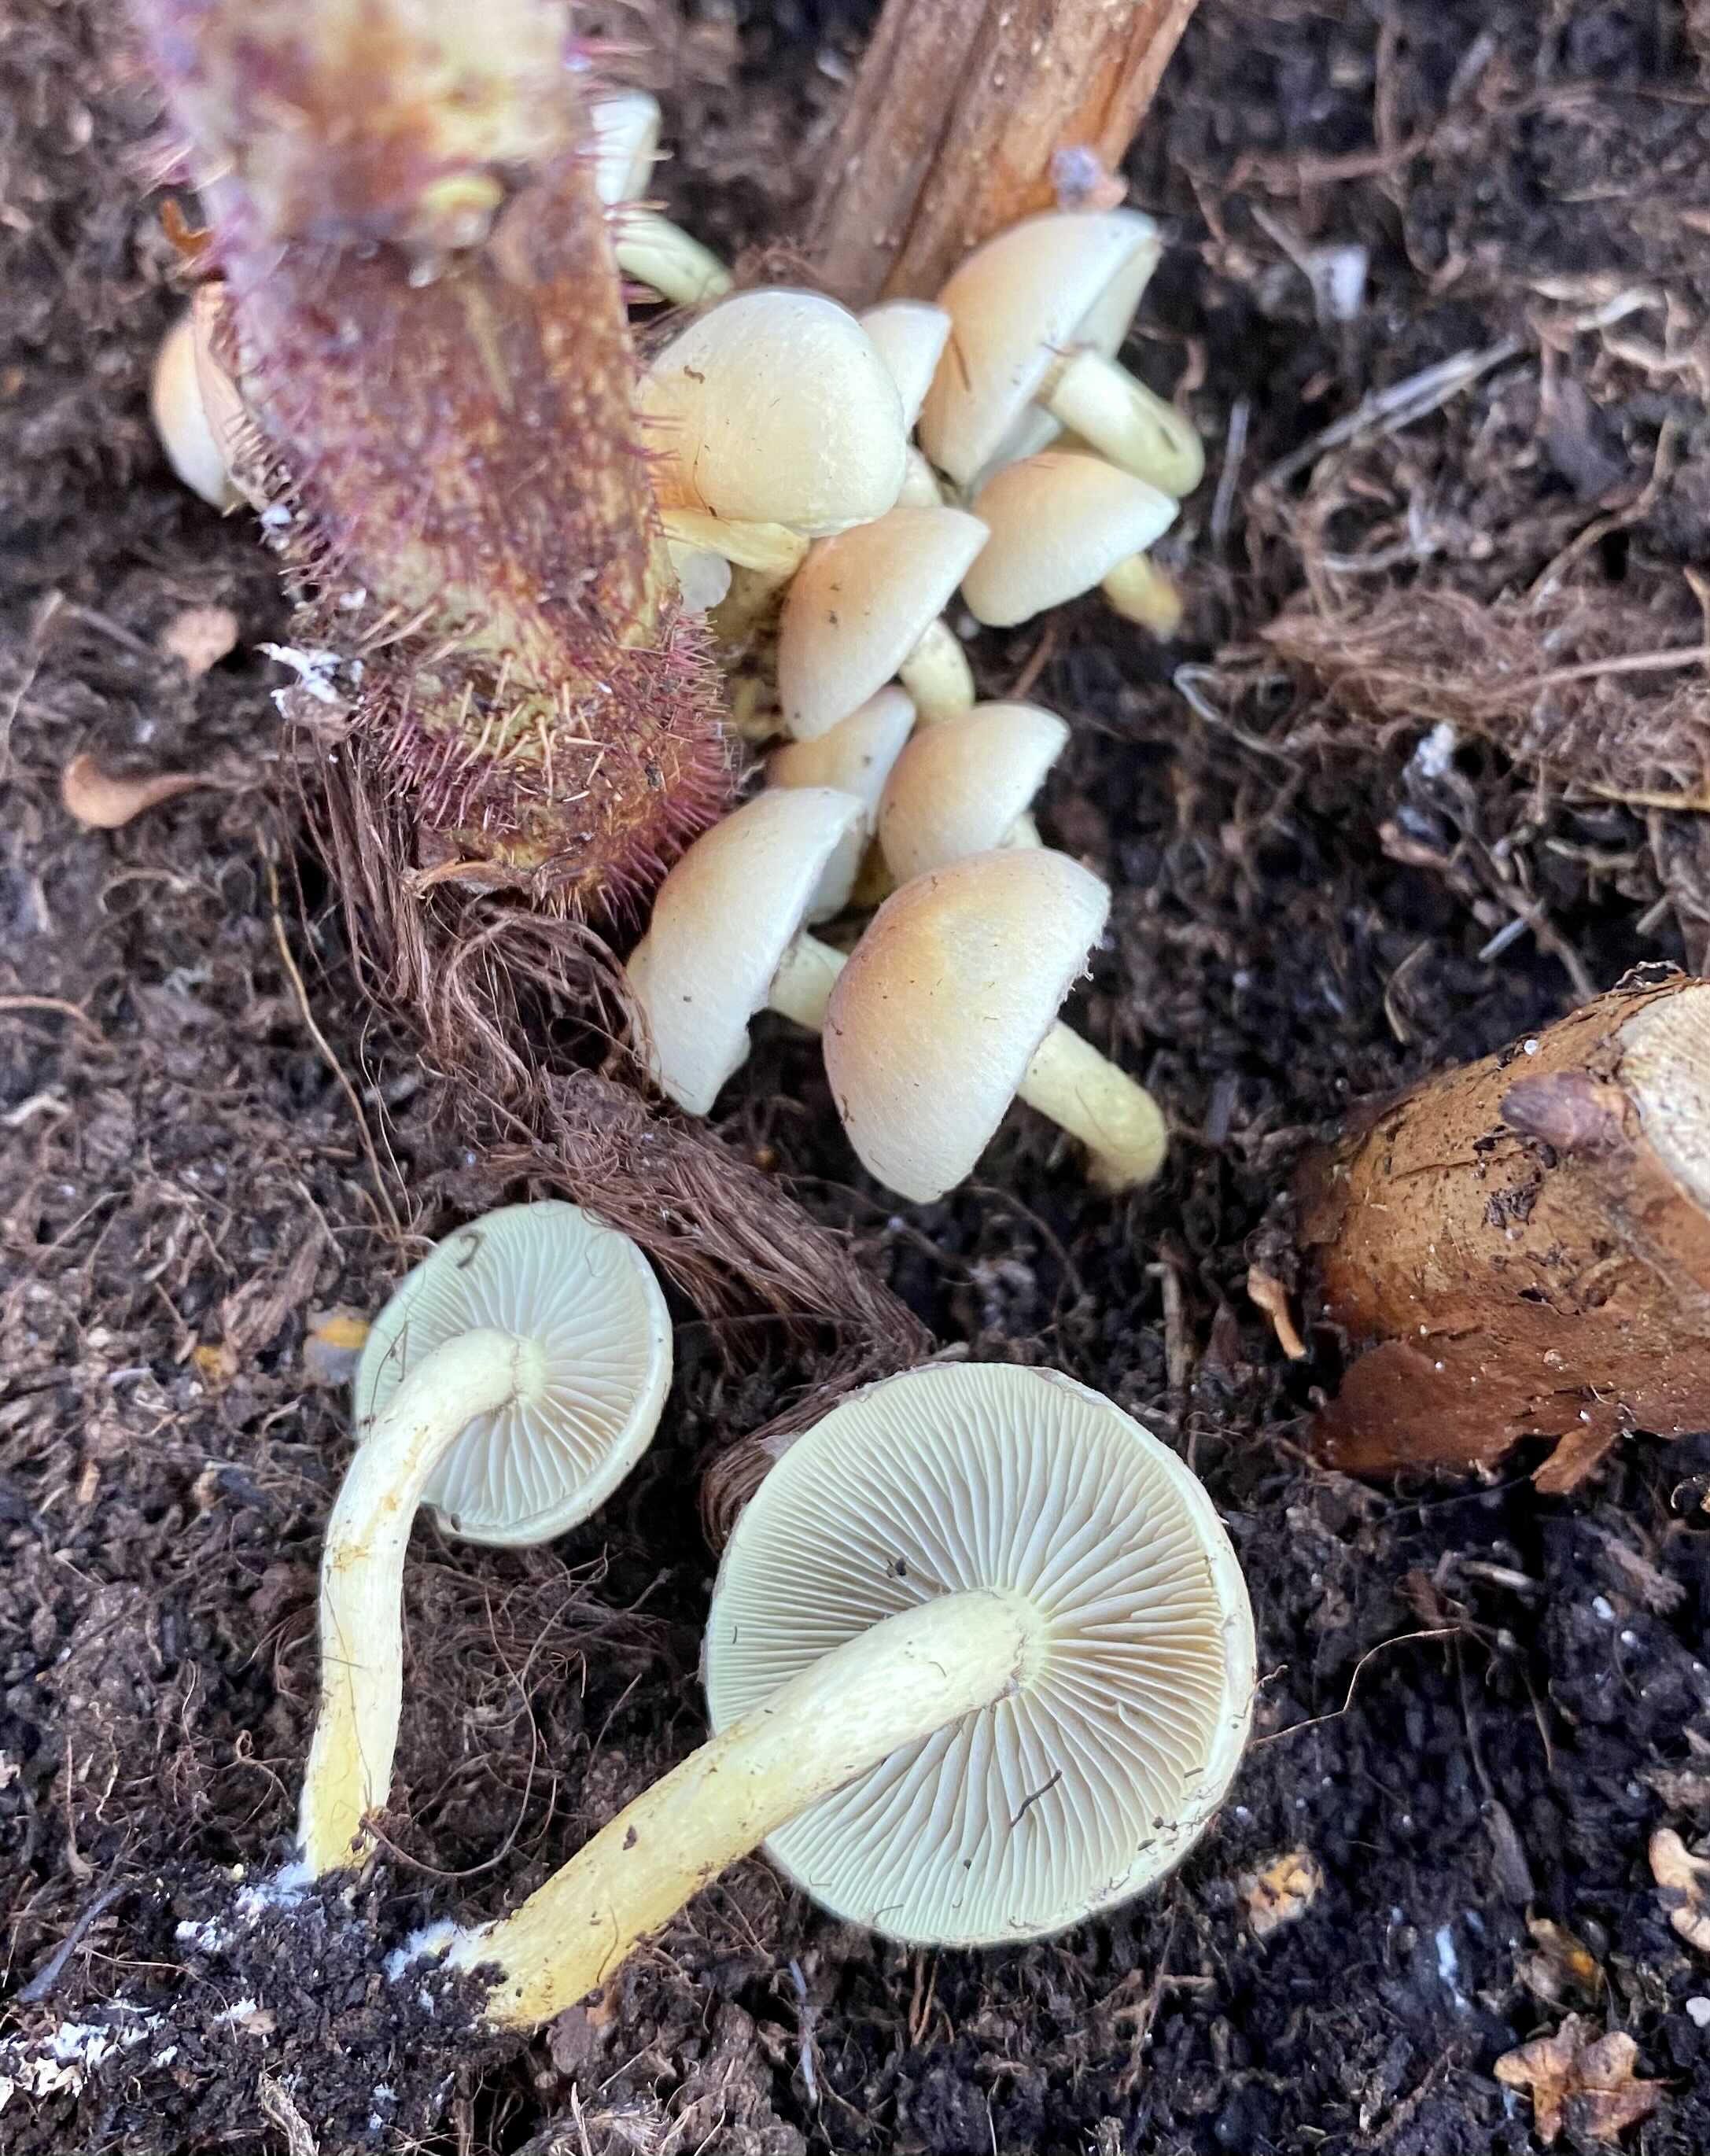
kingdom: Fungi
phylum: Basidiomycota
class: Agaricomycetes
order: Agaricales
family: Strophariaceae
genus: Hypholoma
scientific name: Hypholoma fasciculare
